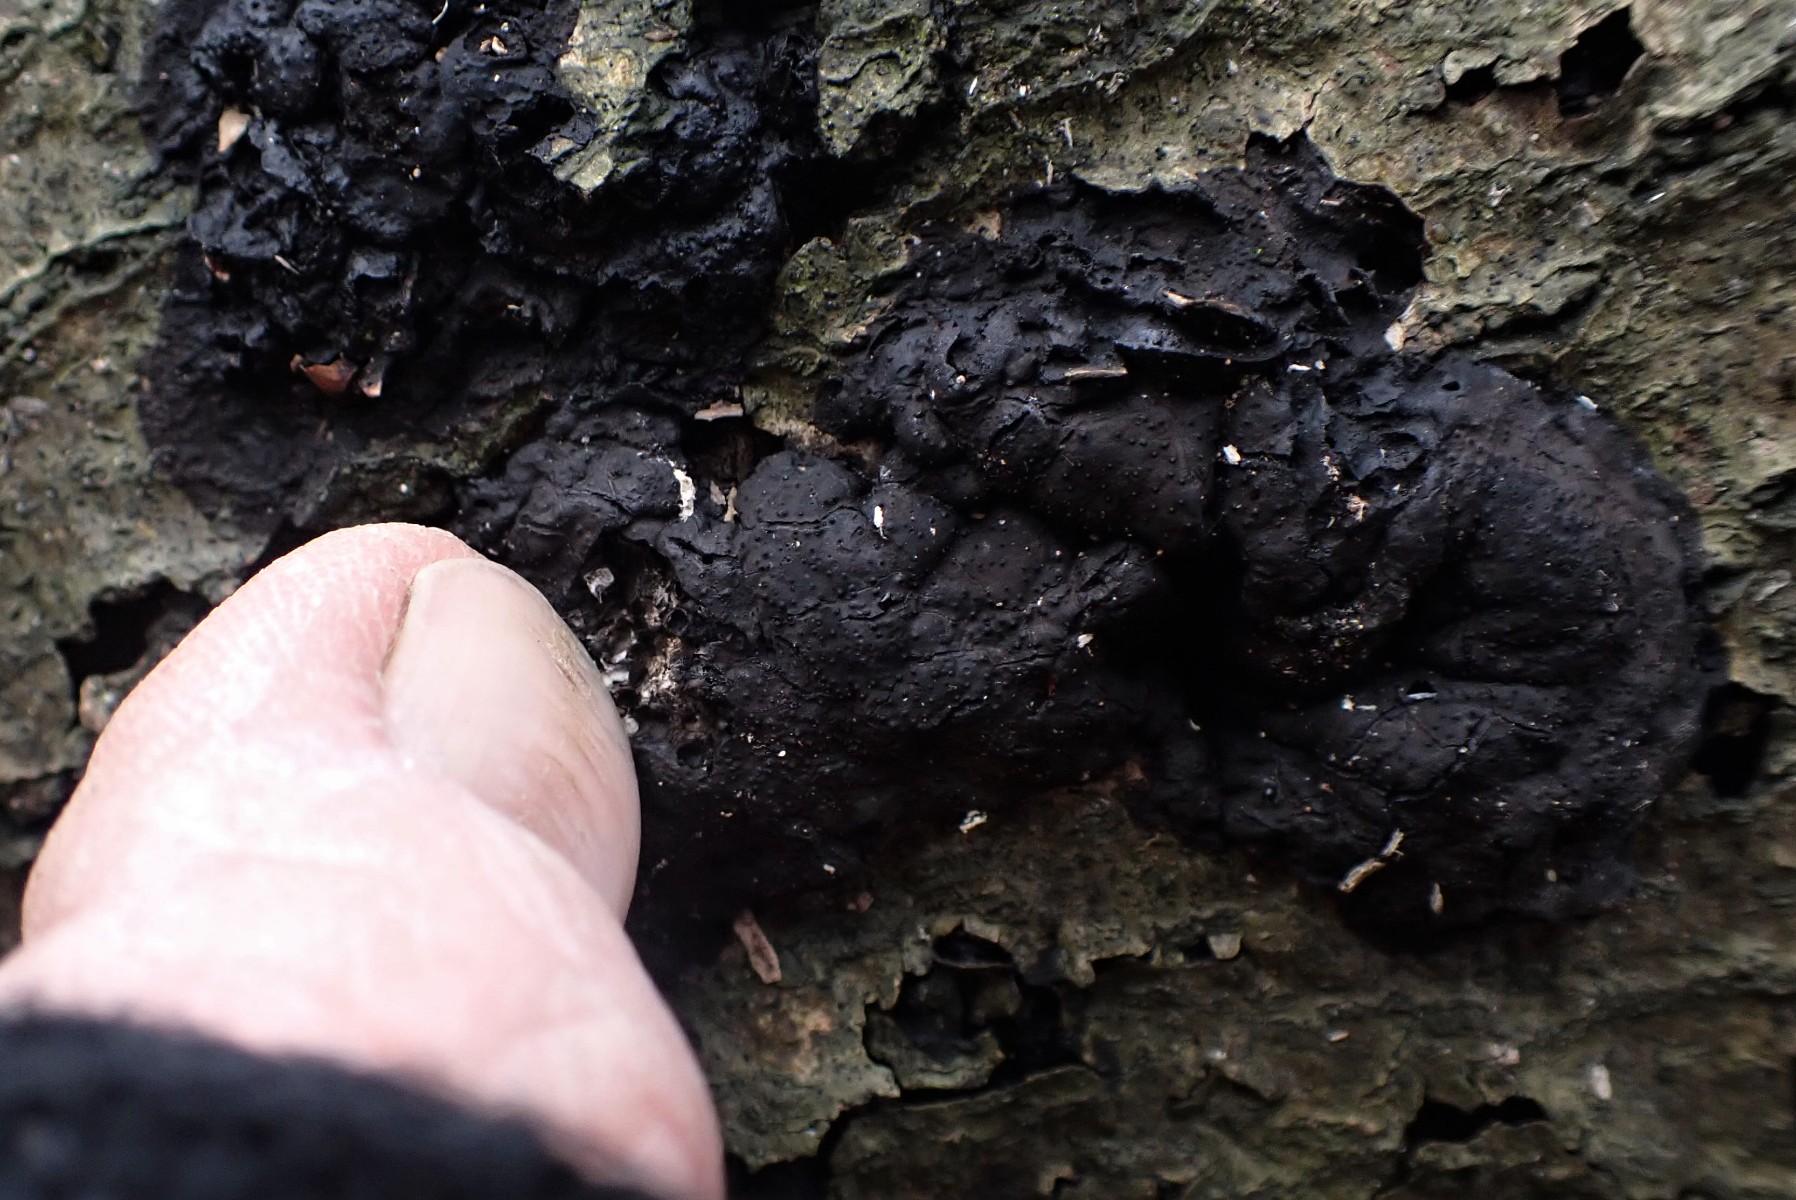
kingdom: Fungi
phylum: Ascomycota
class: Sordariomycetes
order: Xylariales
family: Xylariaceae
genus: Kretzschmaria
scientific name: Kretzschmaria deusta
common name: stor kulsvamp
